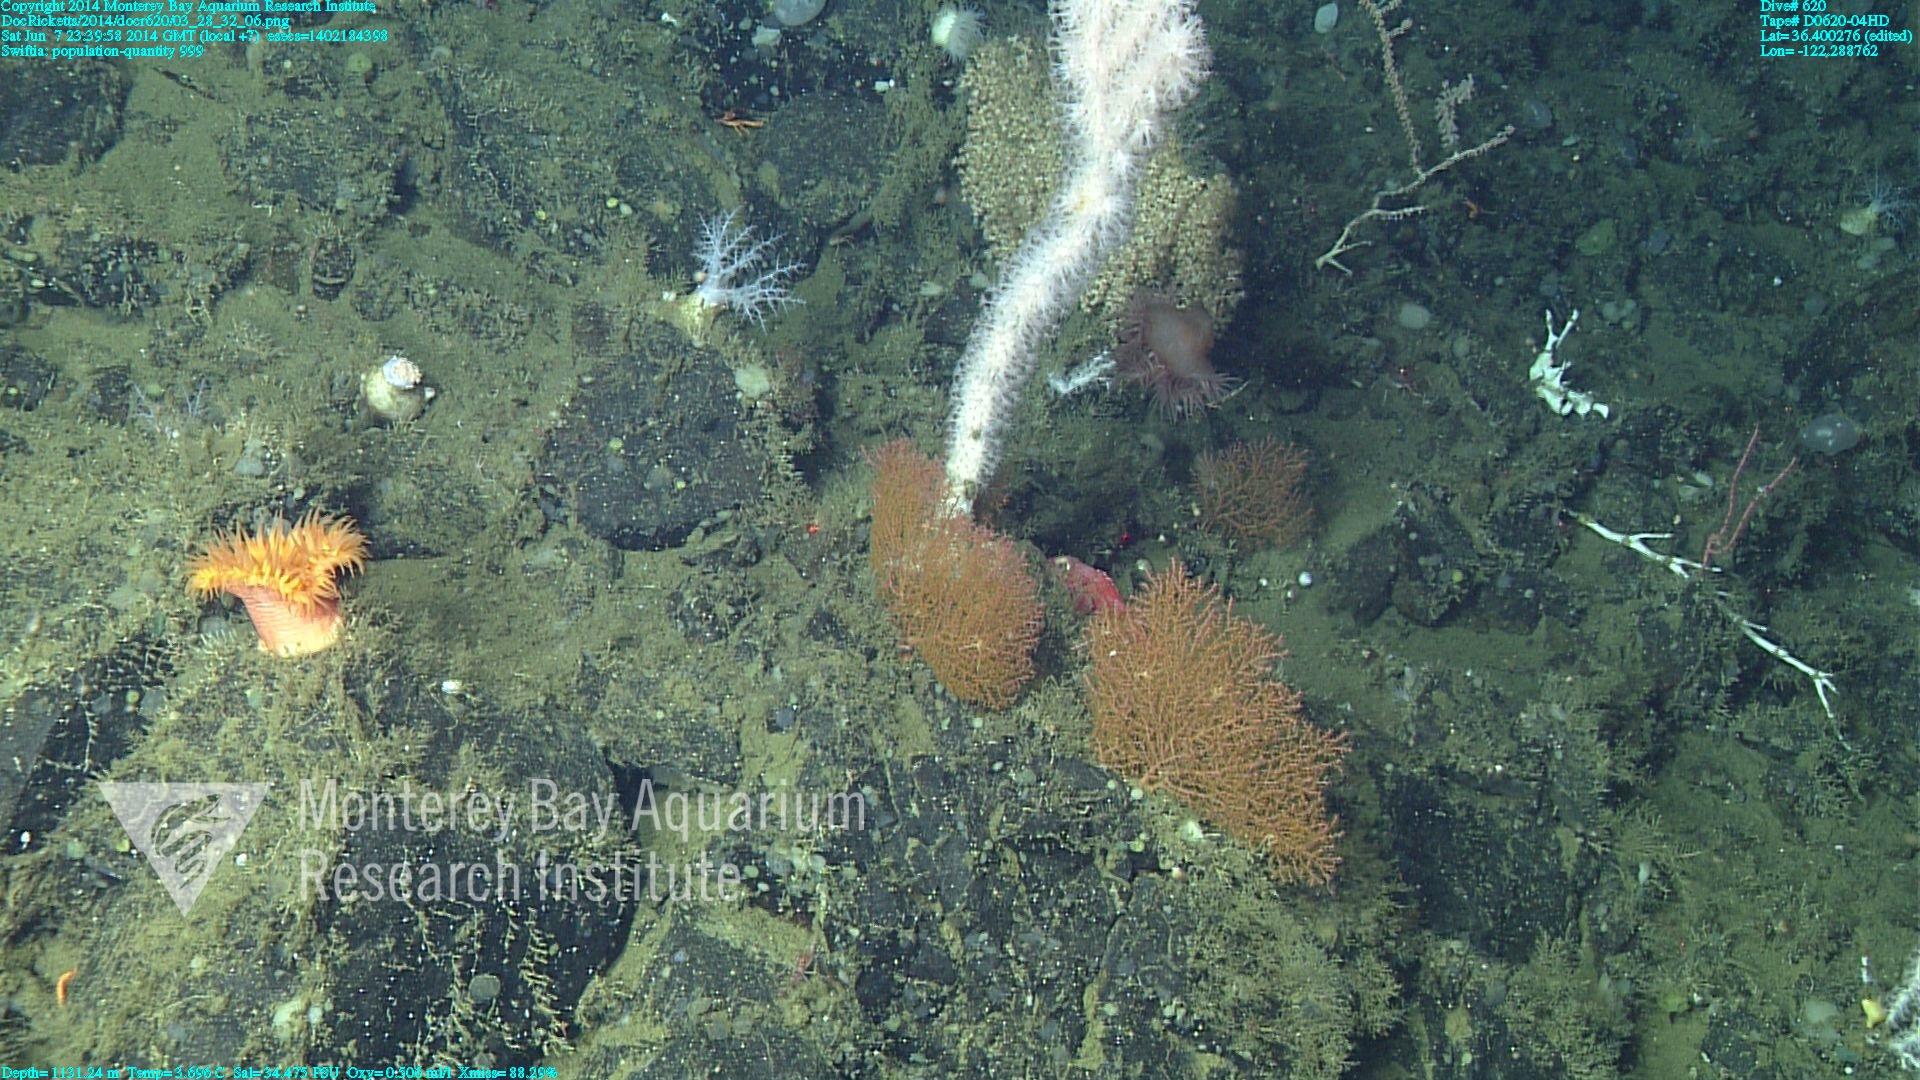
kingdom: Animalia
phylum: Cnidaria
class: Anthozoa
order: Malacalcyonacea
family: Plexauridae
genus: Swiftia
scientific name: Swiftia
